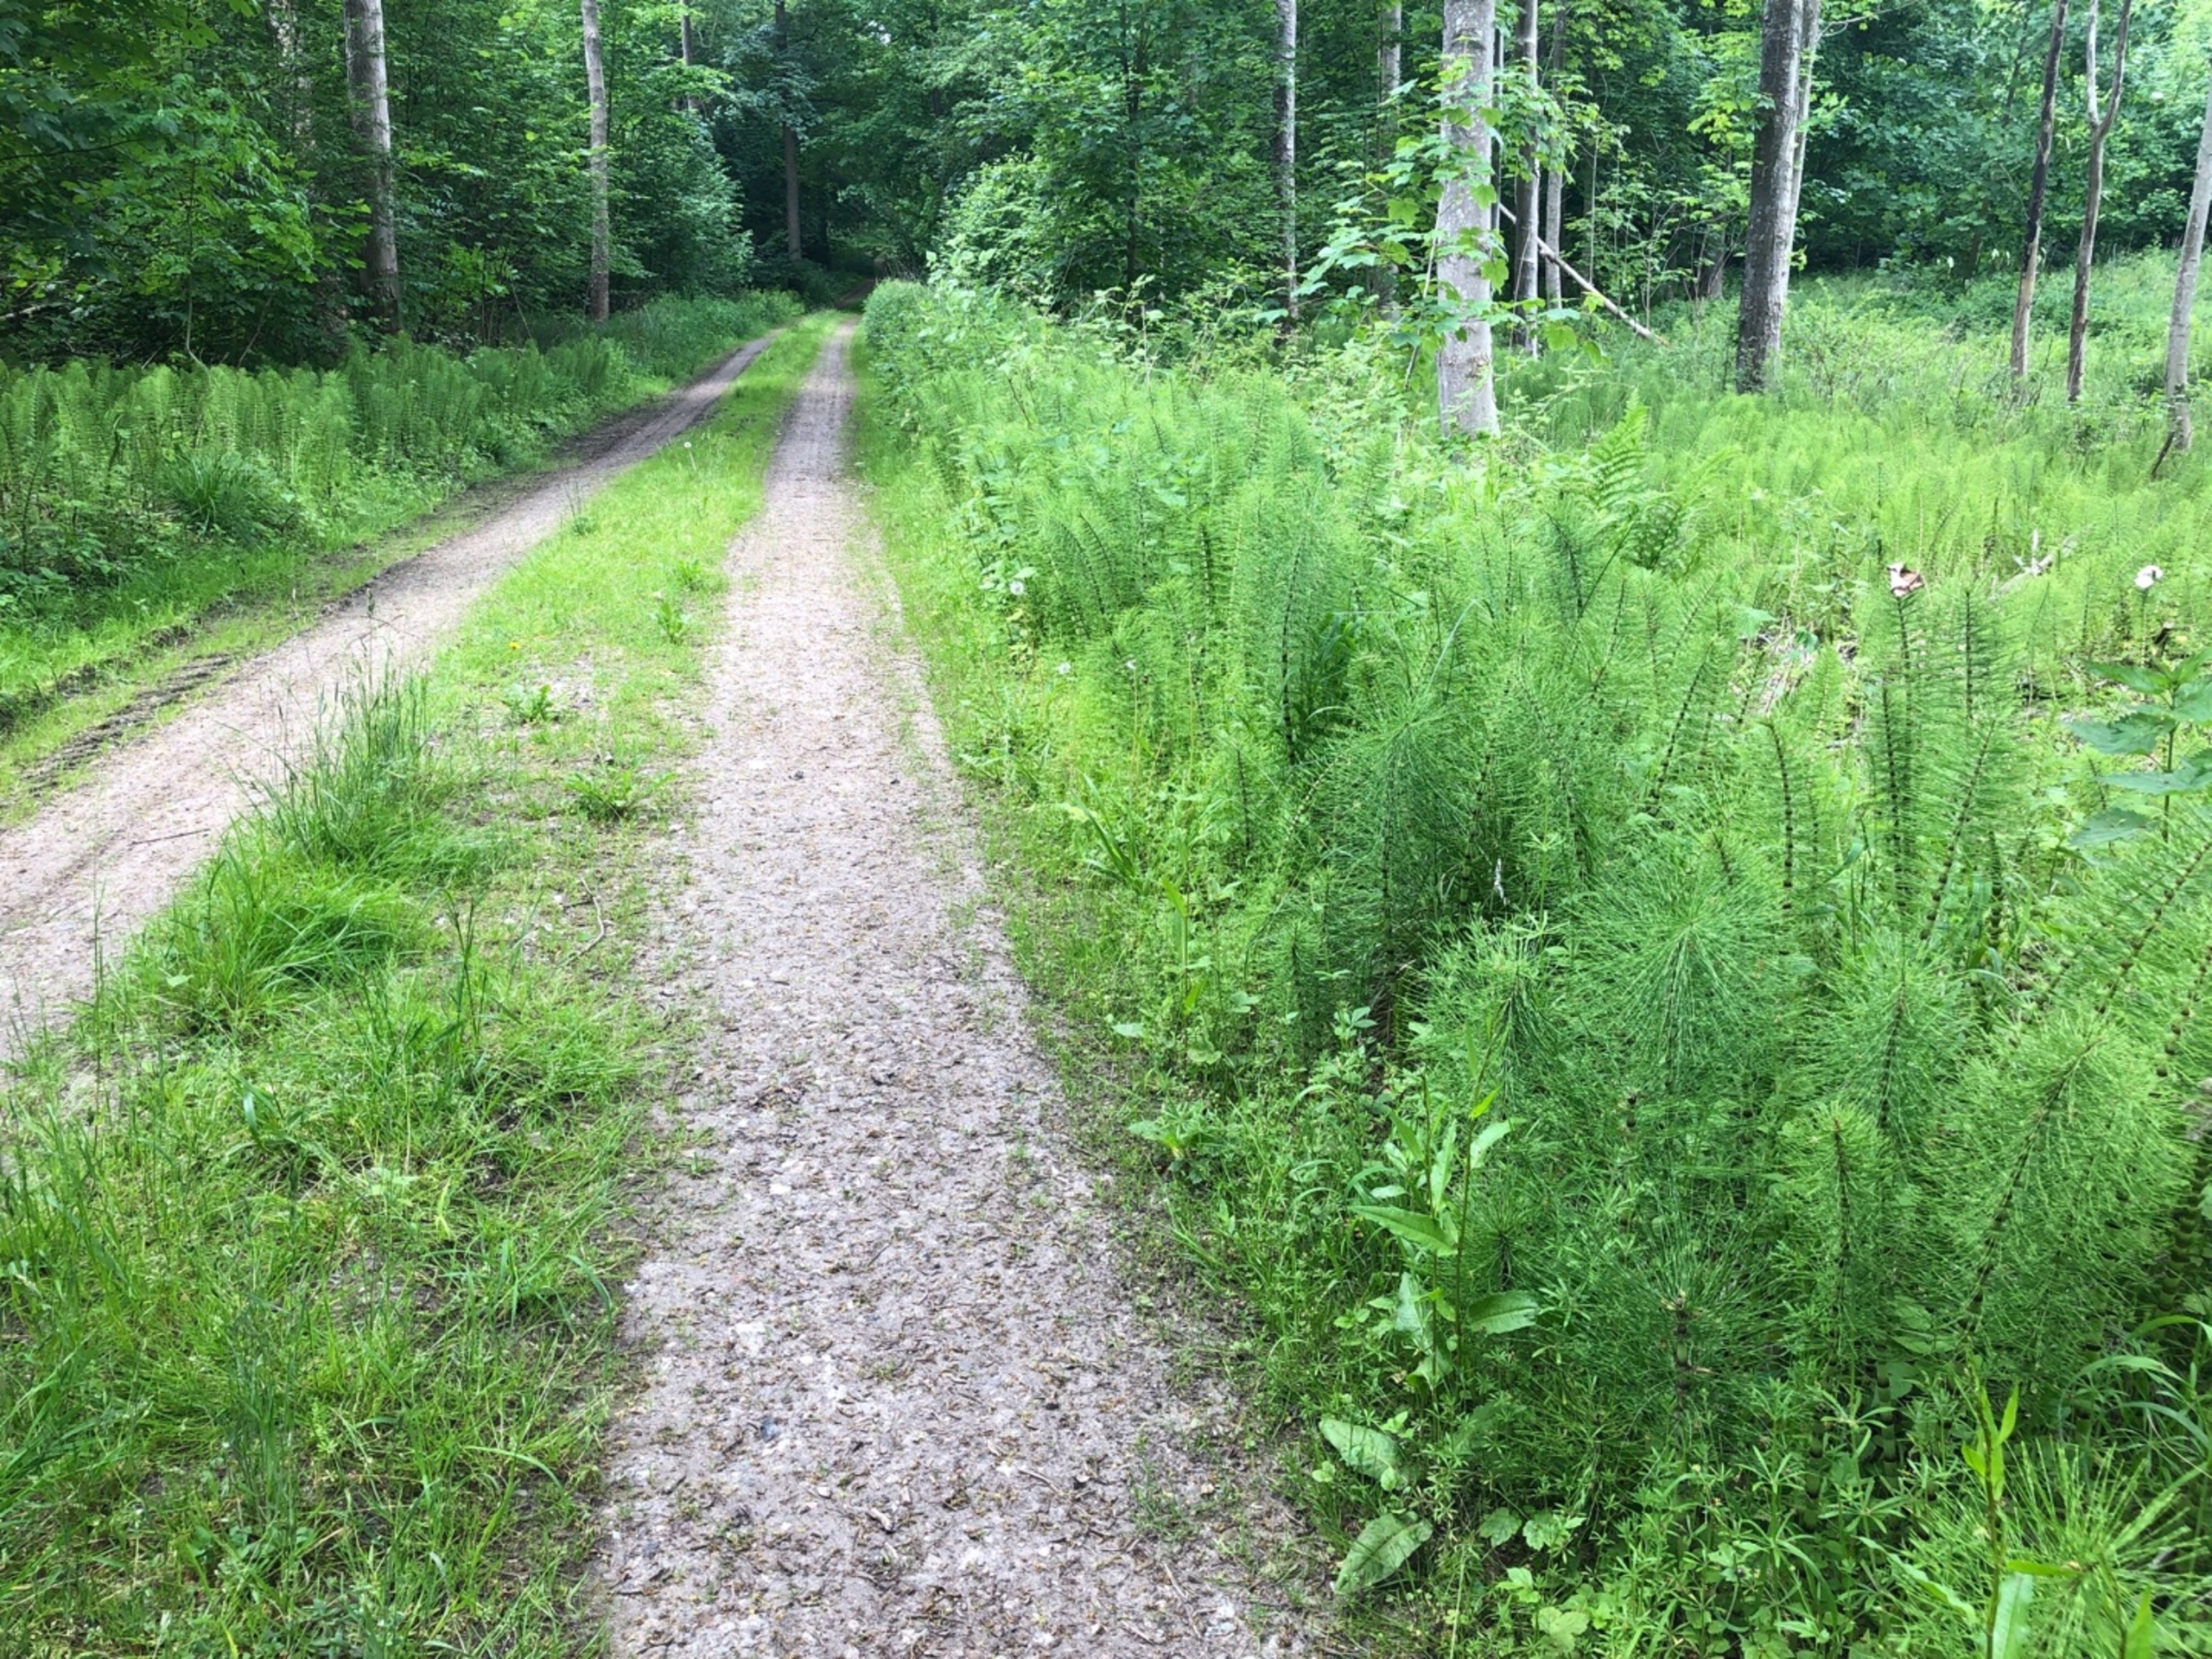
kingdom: Plantae
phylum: Tracheophyta
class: Polypodiopsida
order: Equisetales
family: Equisetaceae
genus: Equisetum
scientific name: Equisetum telmateia
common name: Elfenbens-padderok
